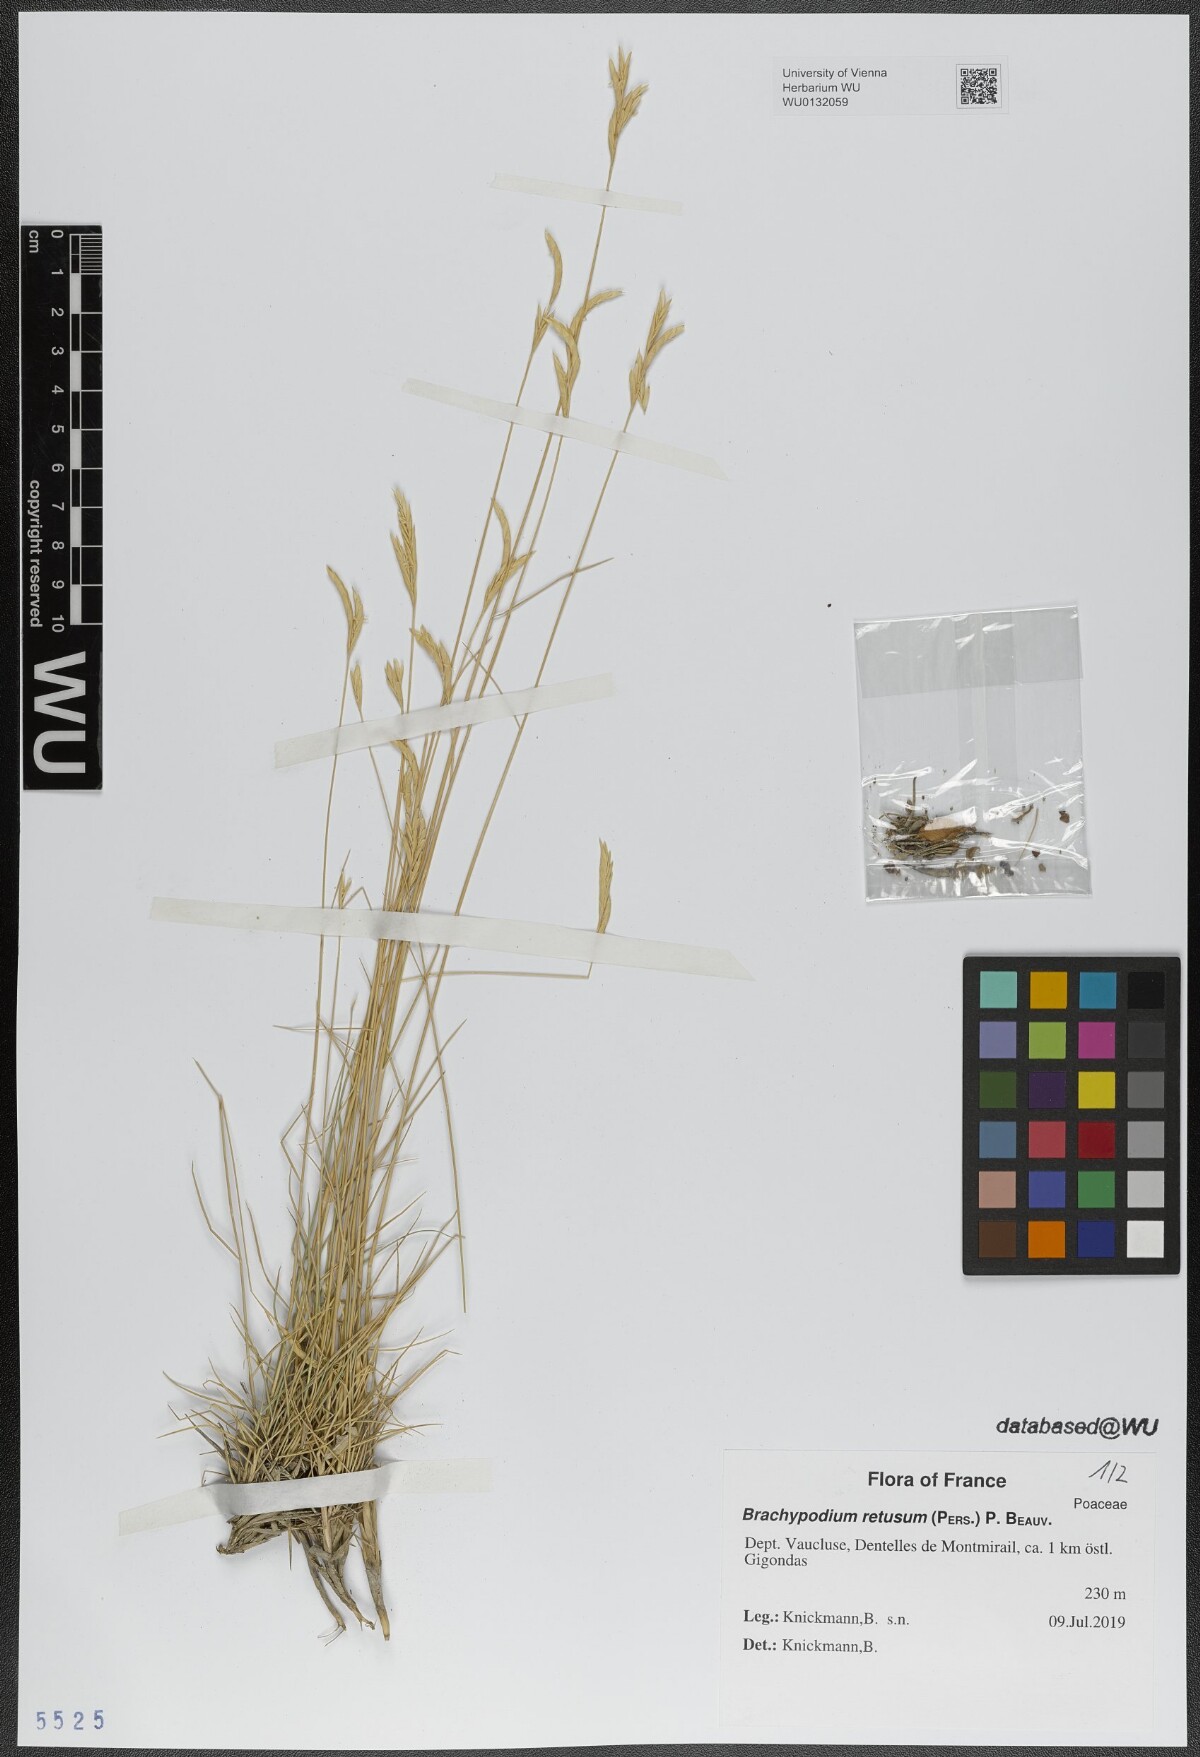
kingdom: Plantae
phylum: Tracheophyta
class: Liliopsida
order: Poales
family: Poaceae
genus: Brachypodium
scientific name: Brachypodium retusum
